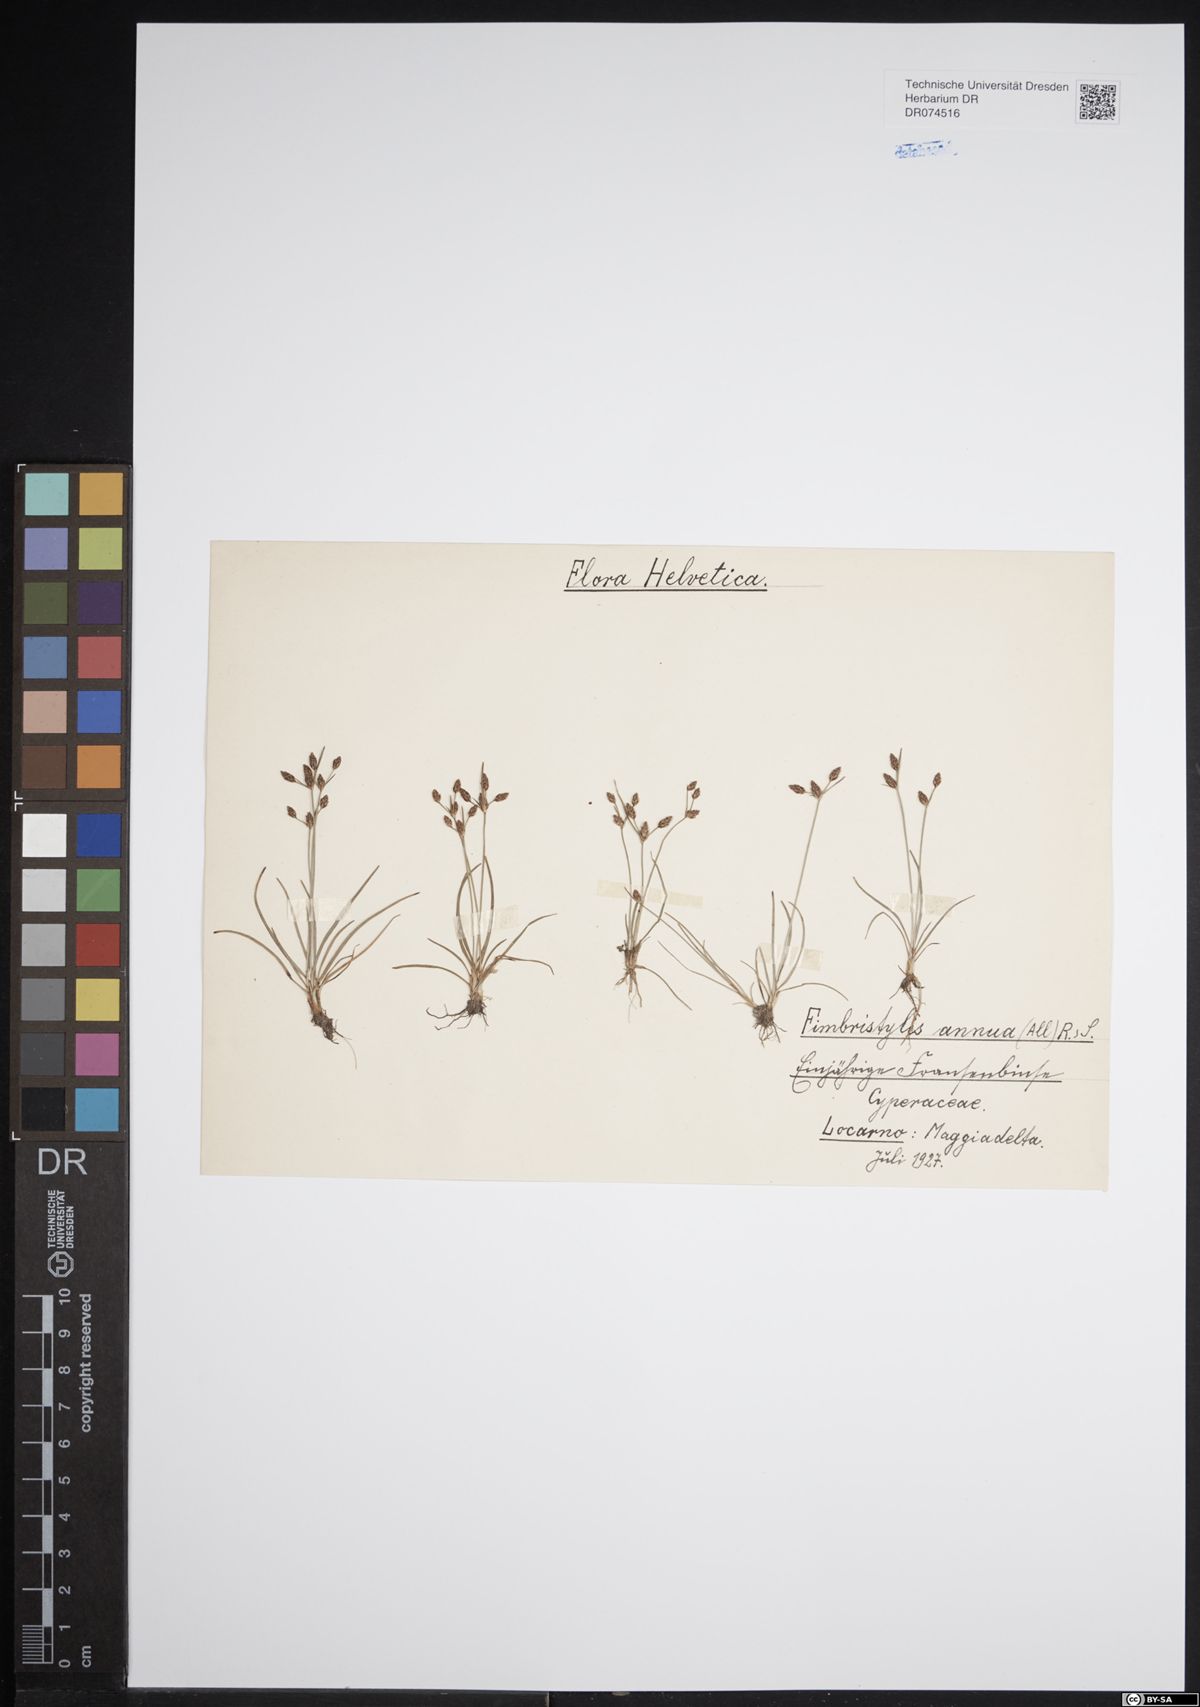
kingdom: Plantae
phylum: Tracheophyta
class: Liliopsida
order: Poales
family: Cyperaceae
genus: Fimbristylis
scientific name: Fimbristylis dichotoma
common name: Forked fimbry
